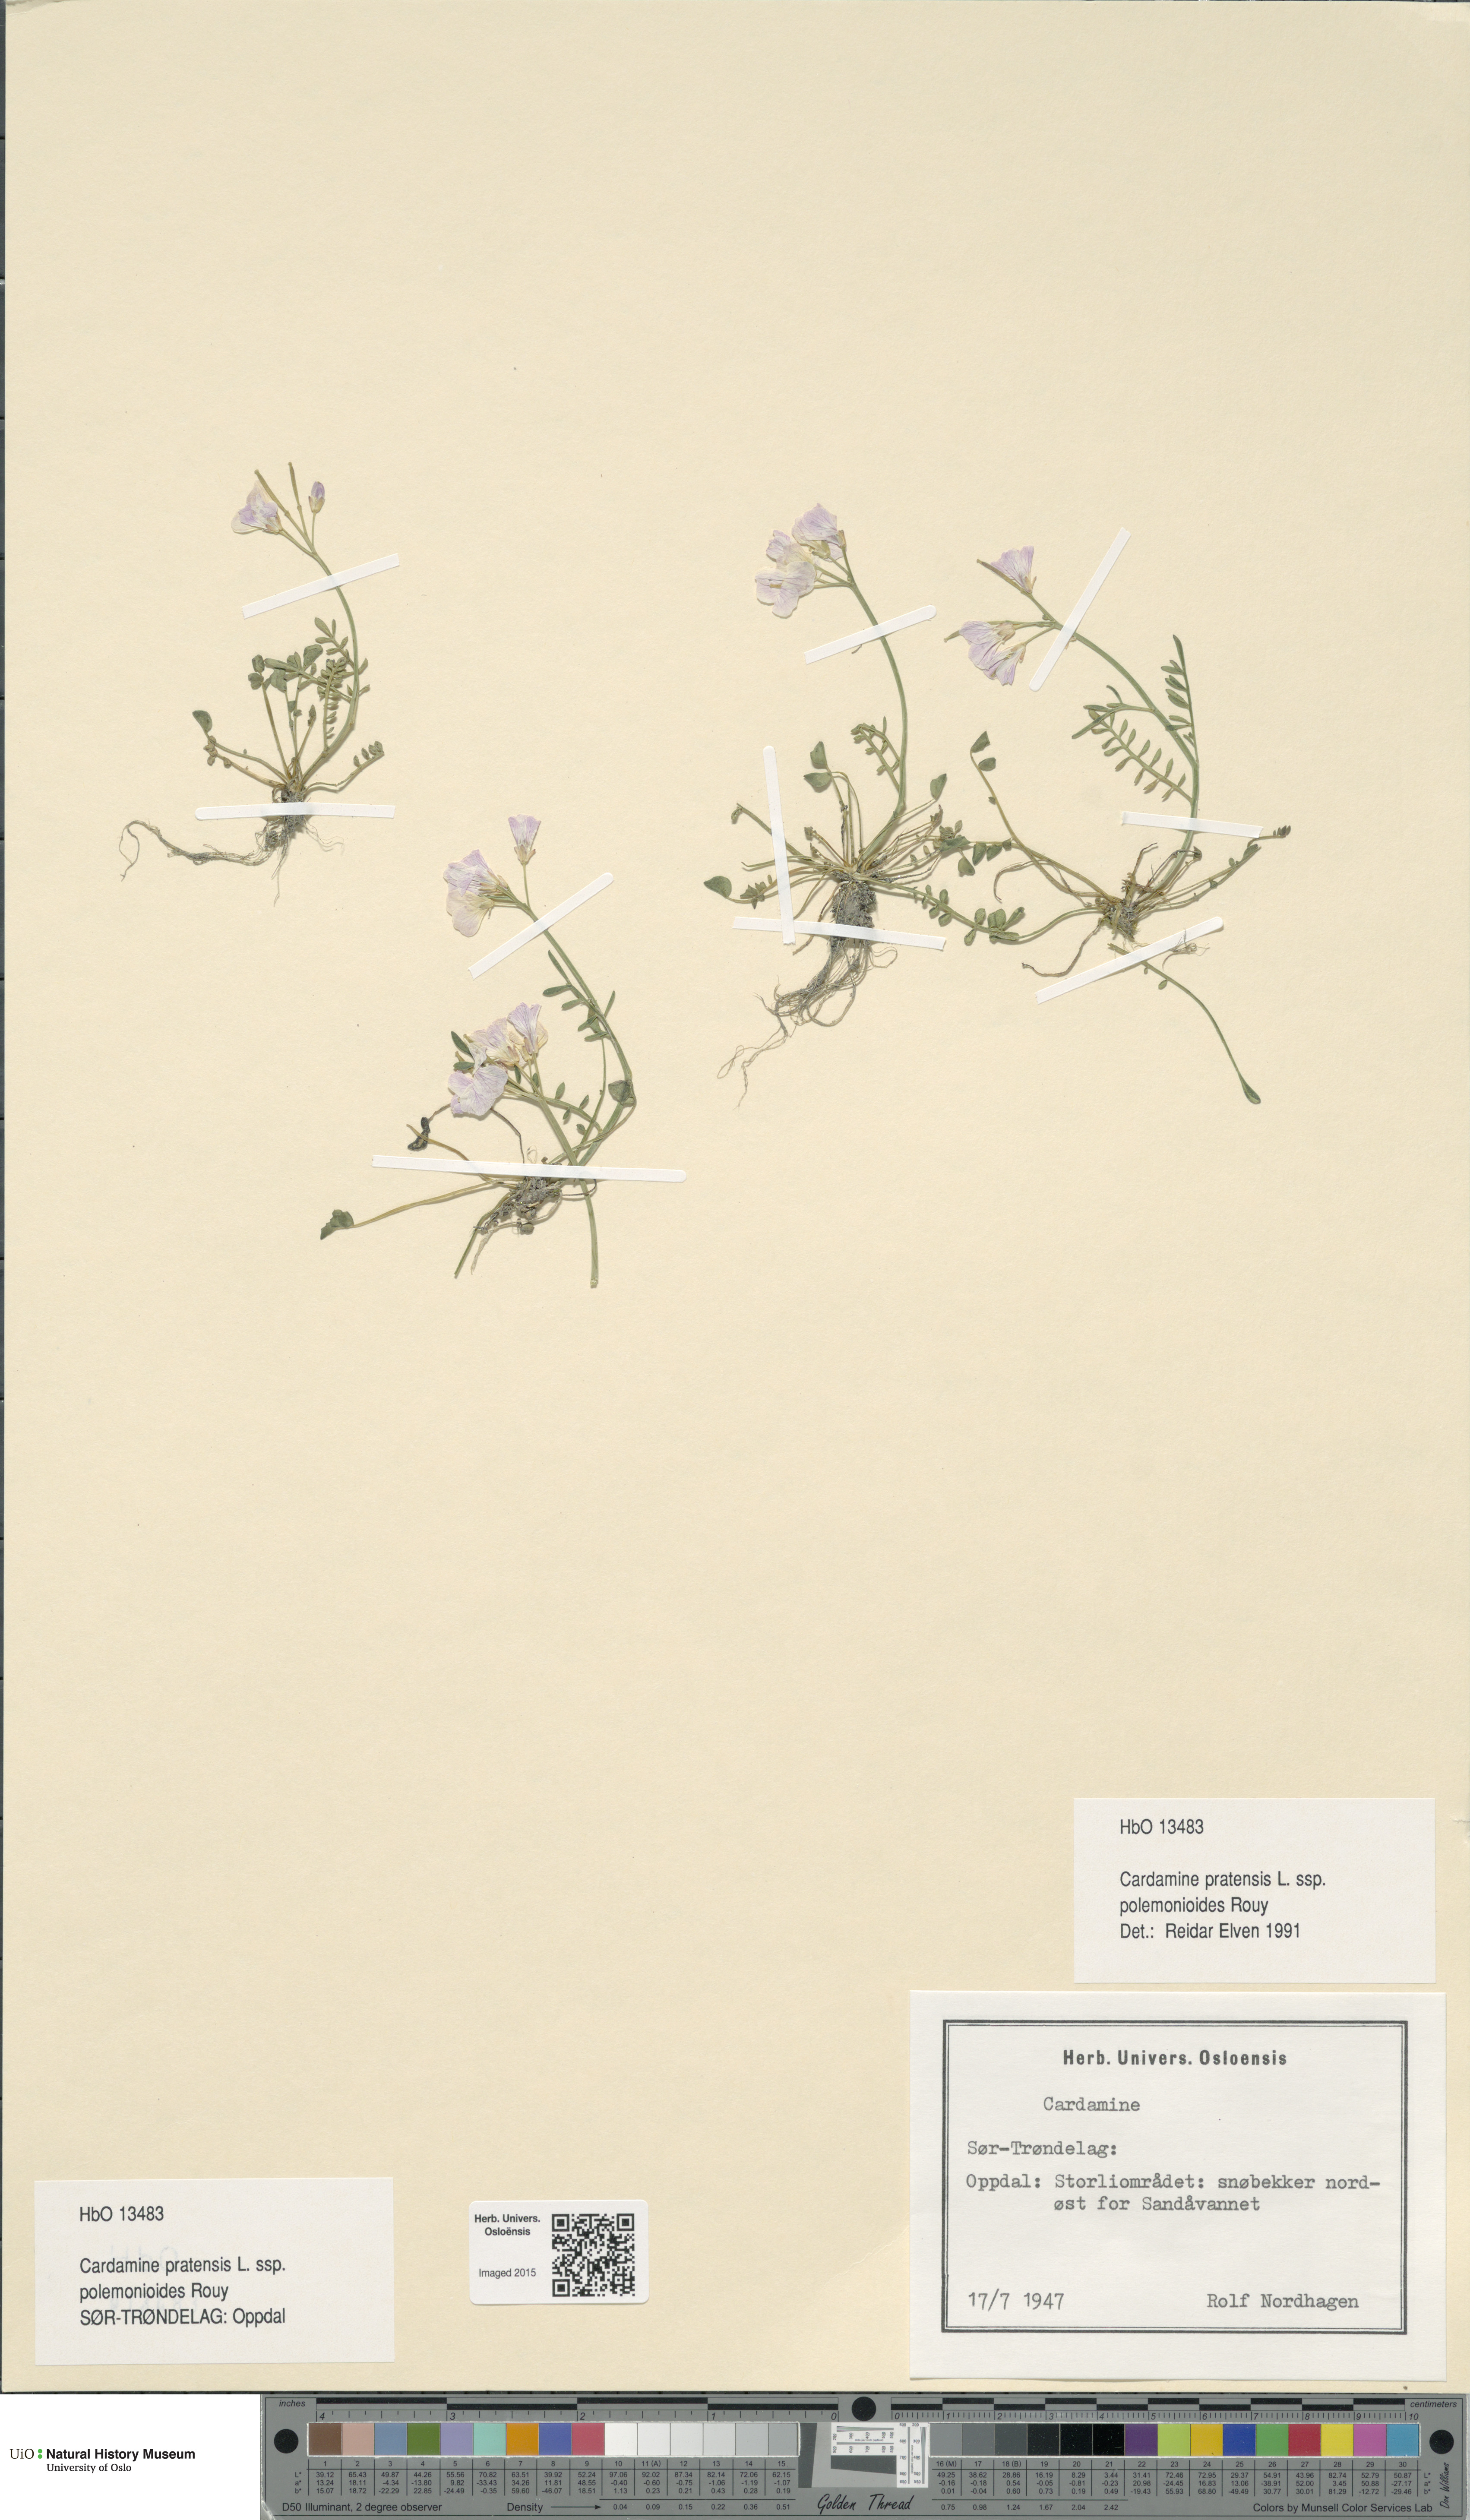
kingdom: Plantae
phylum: Tracheophyta
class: Magnoliopsida
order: Brassicales
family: Brassicaceae
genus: Cardamine
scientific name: Cardamine nymanii
